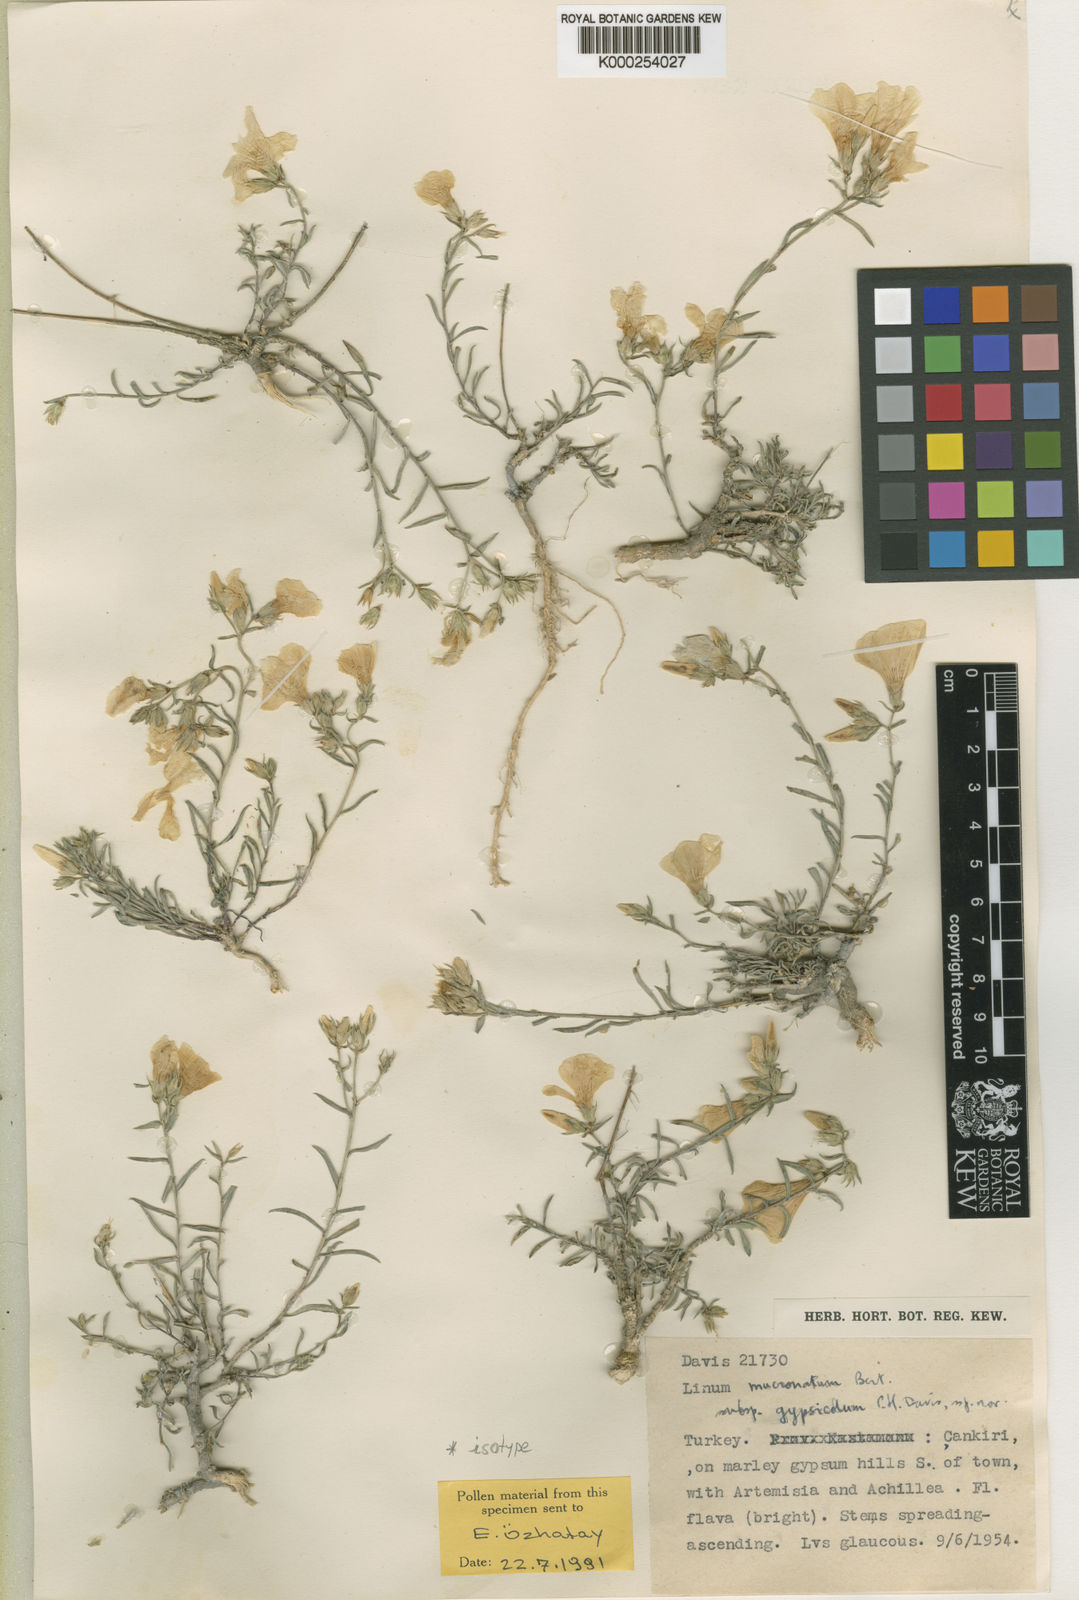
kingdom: Plantae
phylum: Tracheophyta
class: Magnoliopsida
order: Malpighiales
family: Linaceae
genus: Linum
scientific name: Linum mucronatum
